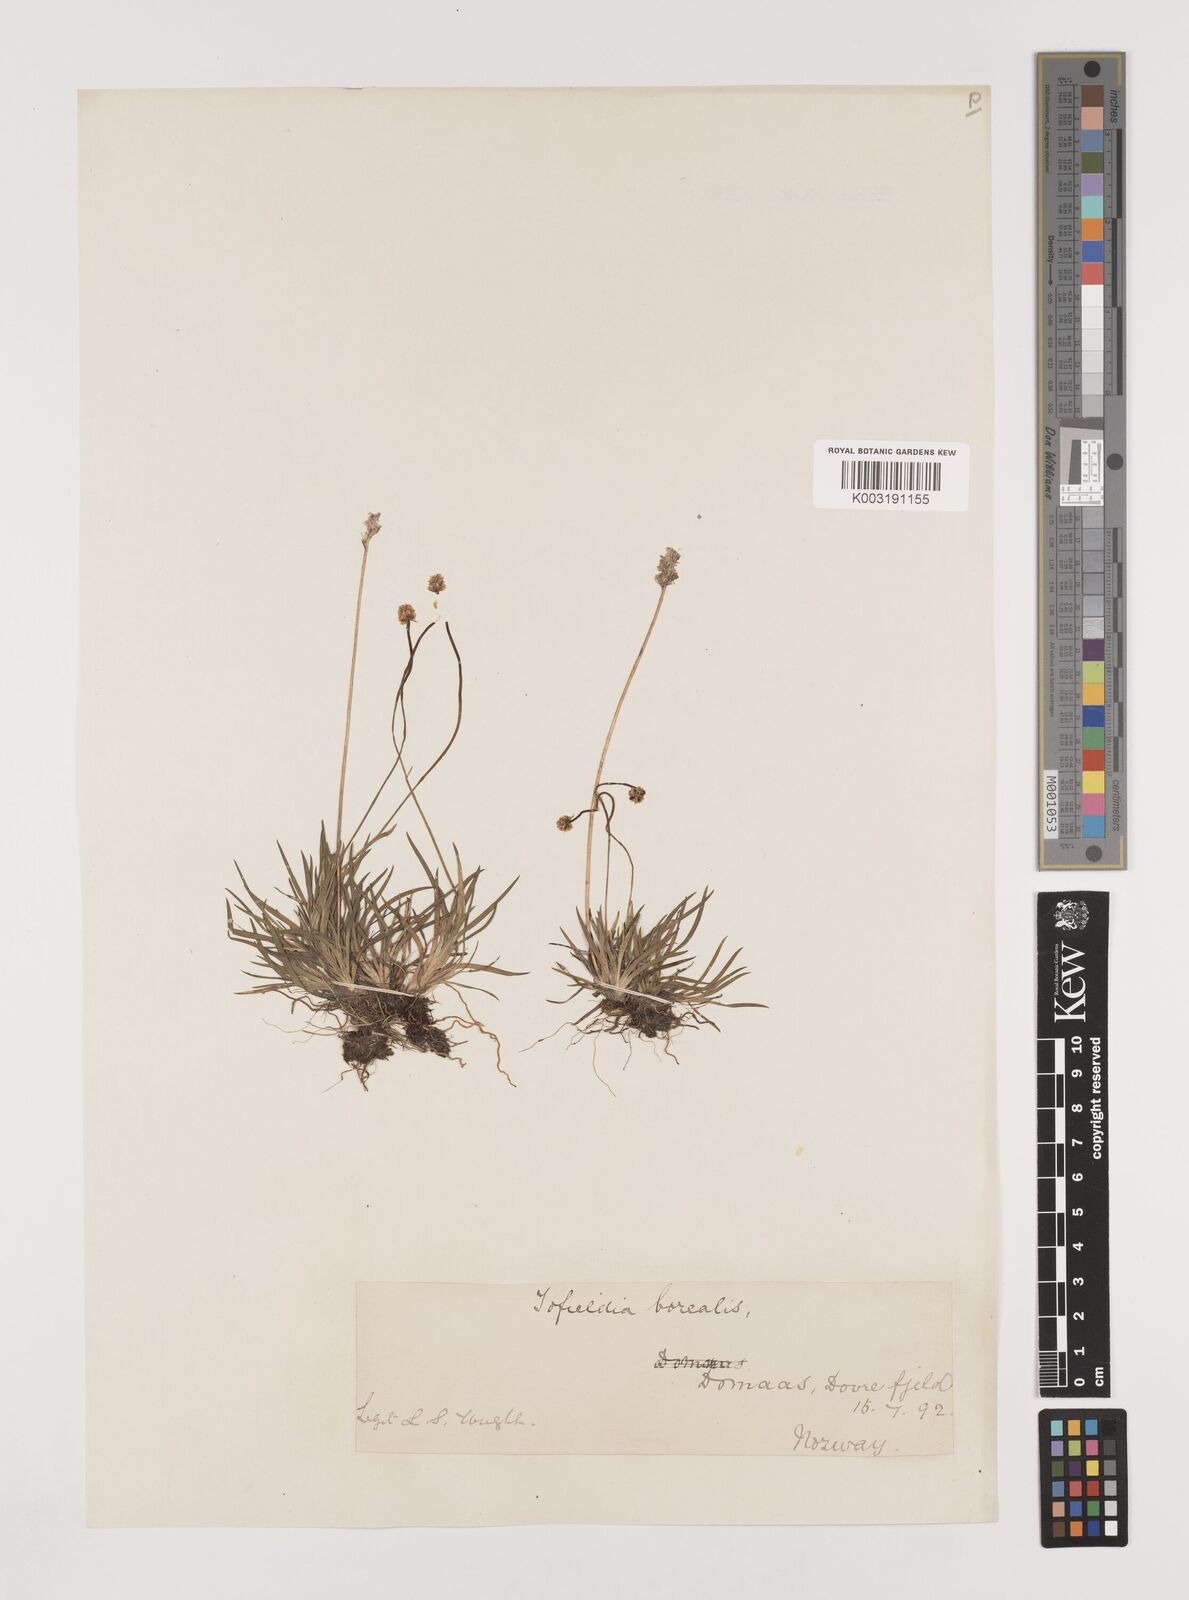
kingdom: Plantae
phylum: Tracheophyta
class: Liliopsida
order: Alismatales
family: Tofieldiaceae
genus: Tofieldia
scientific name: Tofieldia pusilla
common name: Scottish false asphodel
